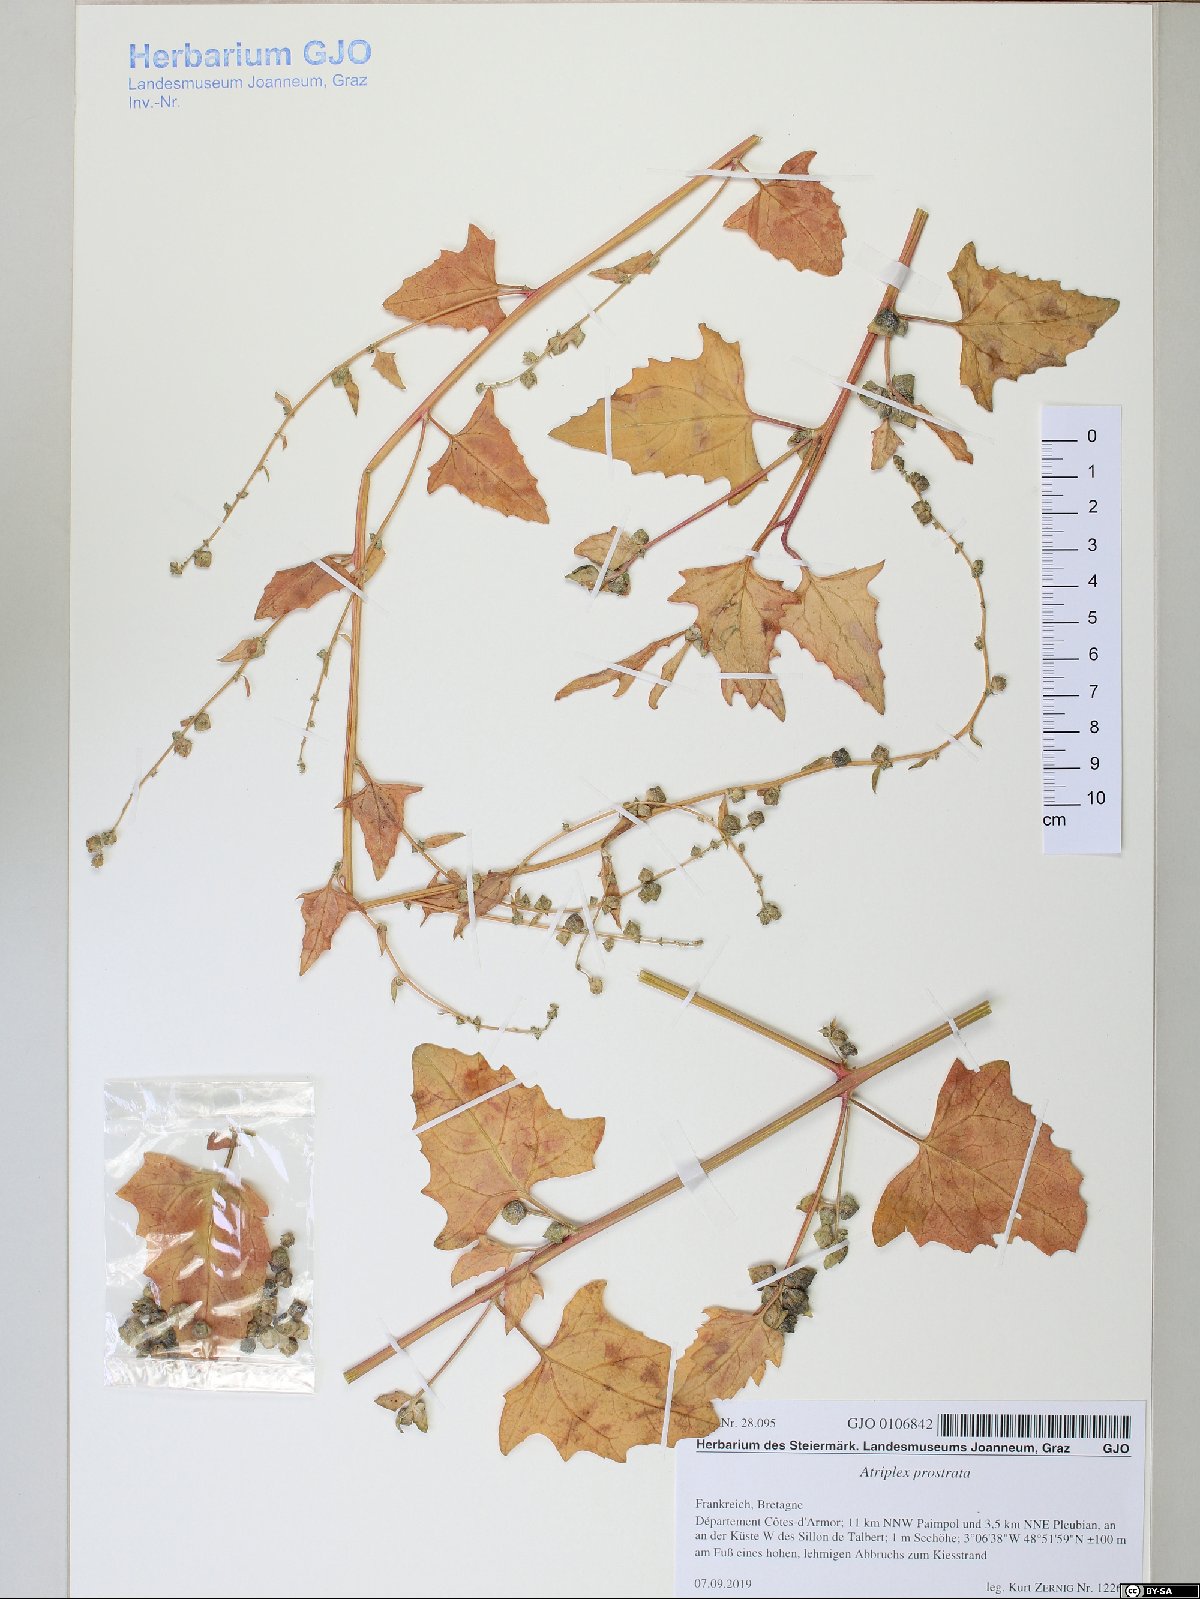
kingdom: Plantae
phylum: Tracheophyta
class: Magnoliopsida
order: Caryophyllales
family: Amaranthaceae
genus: Atriplex
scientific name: Atriplex prostrata
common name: Spear-leaved orache
